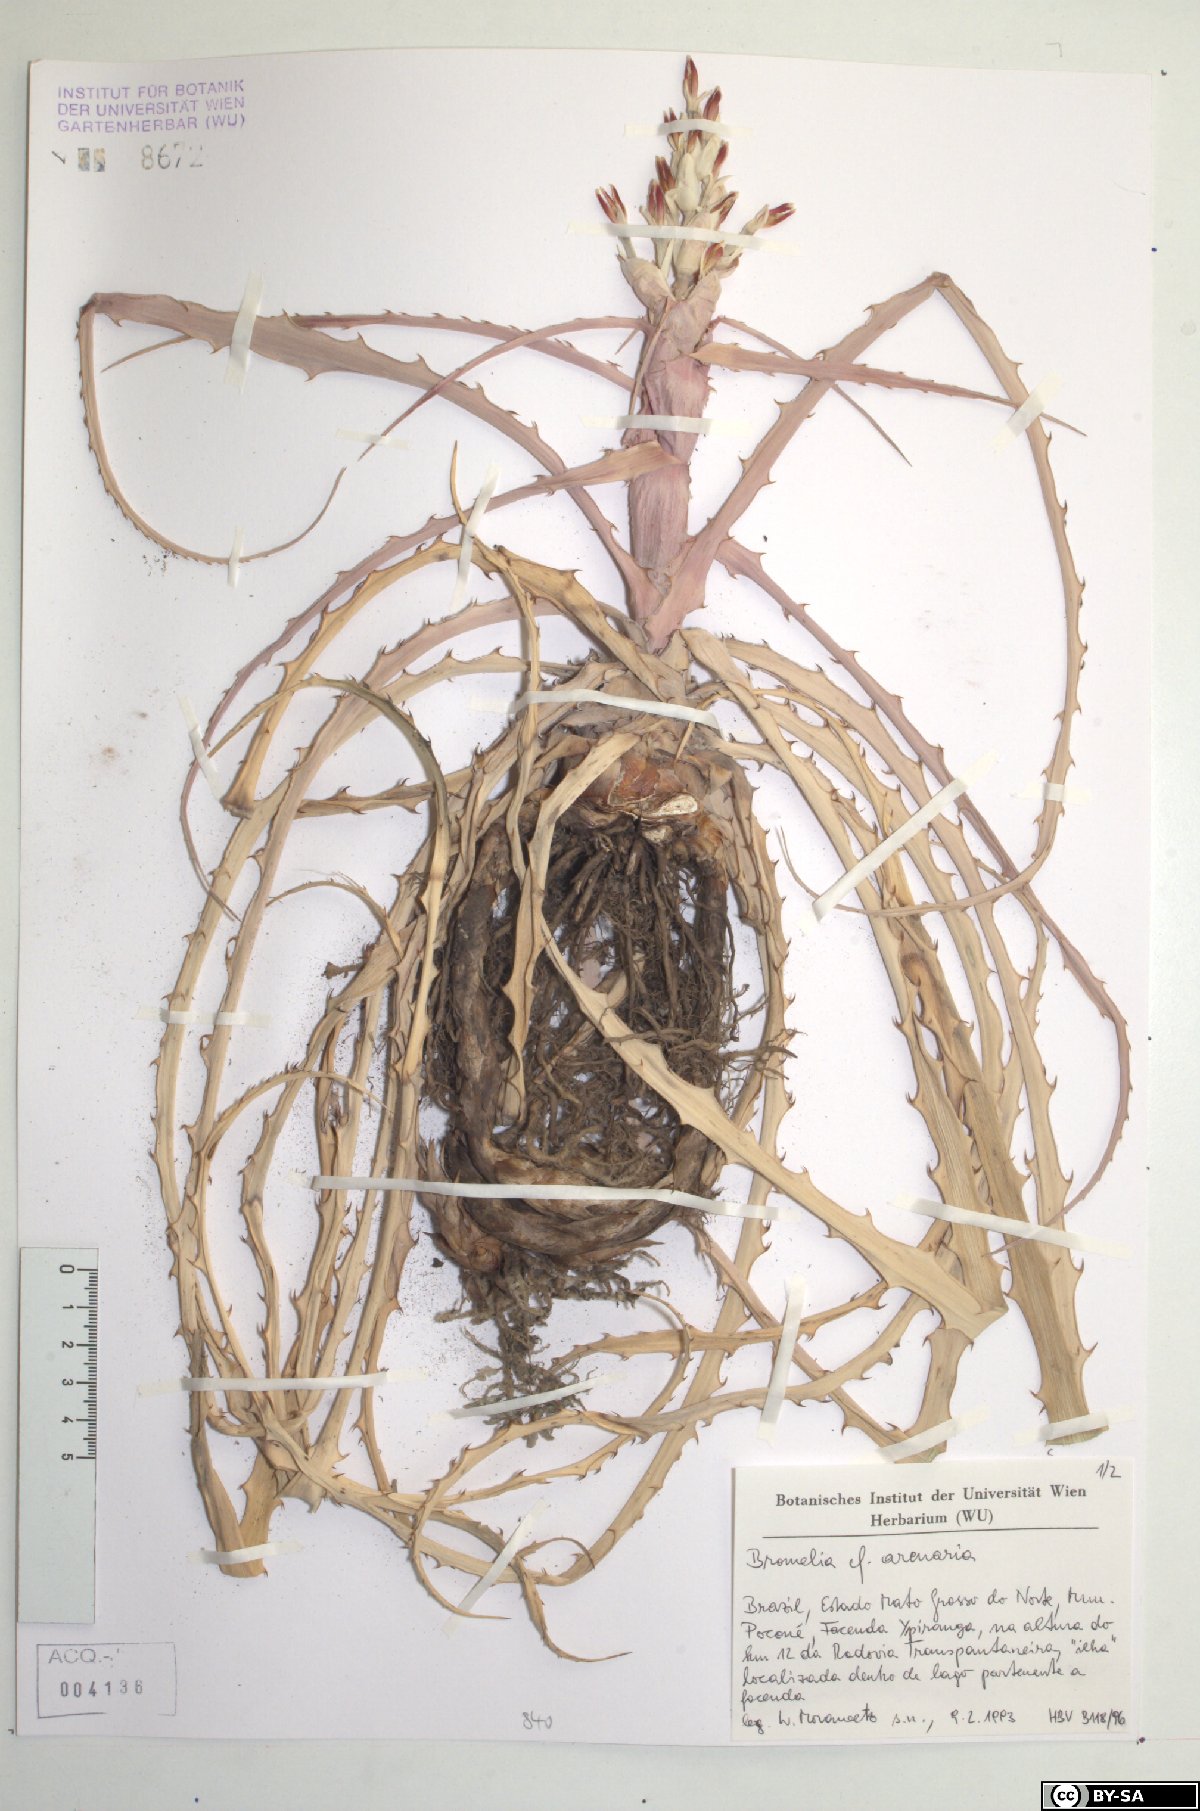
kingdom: Plantae
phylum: Tracheophyta
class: Liliopsida
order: Poales
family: Bromeliaceae
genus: Bromelia
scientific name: Bromelia arenaria
